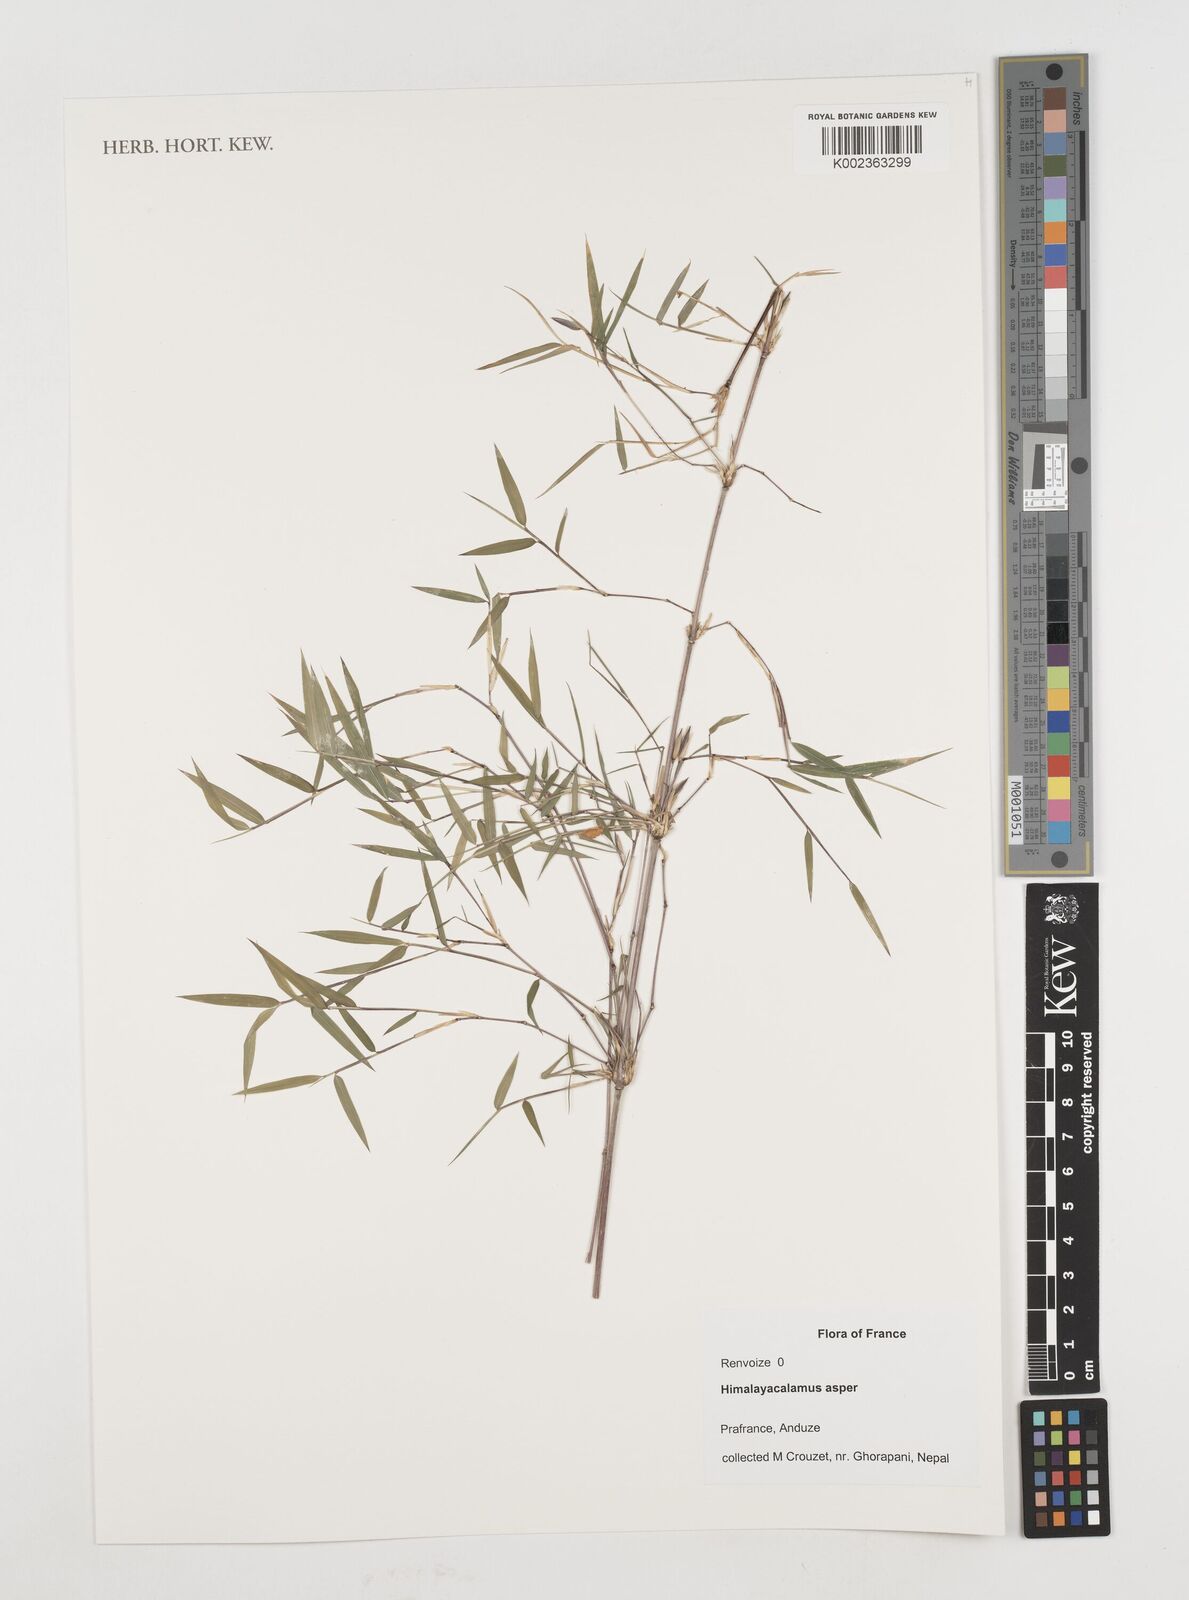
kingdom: Plantae
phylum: Tracheophyta
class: Liliopsida
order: Poales
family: Poaceae
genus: Himalayacalamus
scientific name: Himalayacalamus asper
